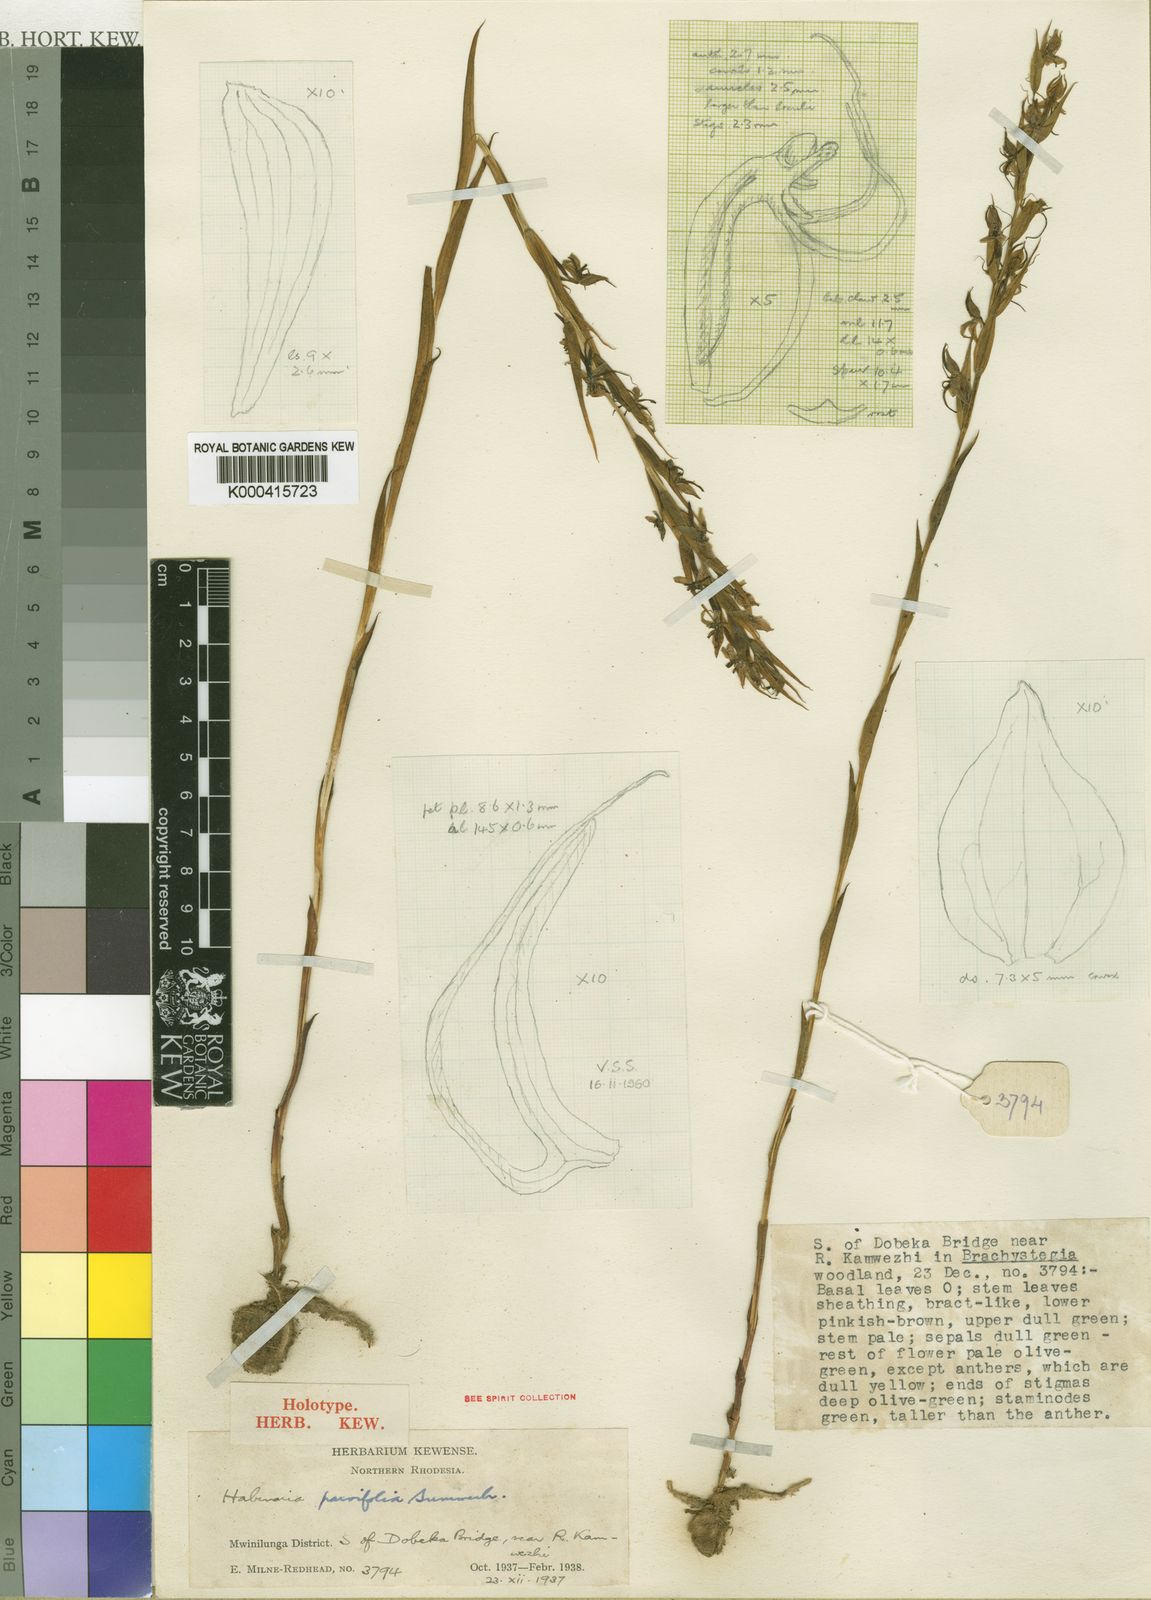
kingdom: Plantae
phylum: Tracheophyta
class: Liliopsida
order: Asparagales
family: Orchidaceae
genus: Habenaria
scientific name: Habenaria njamnjamica
